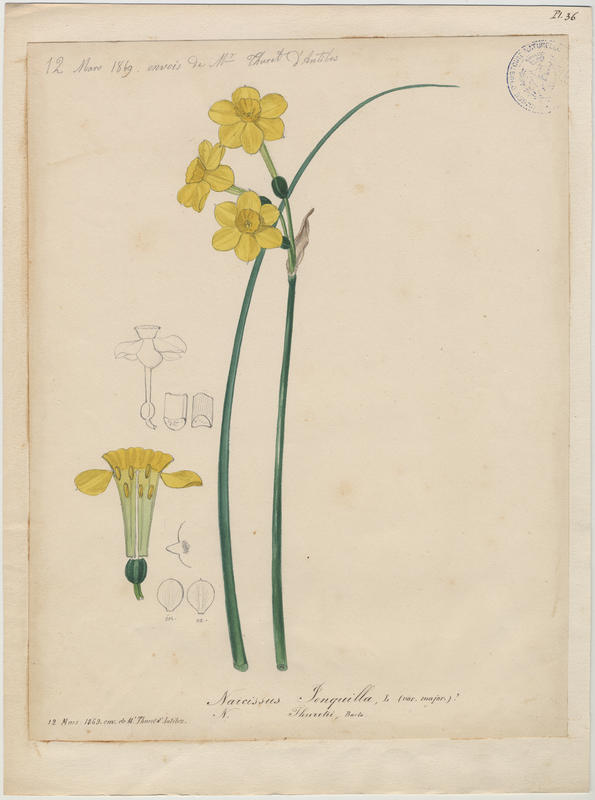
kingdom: Plantae
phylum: Tracheophyta
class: Liliopsida
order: Asparagales
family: Amaryllidaceae
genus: Narcissus
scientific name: Narcissus jonquilla
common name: Jonquil
